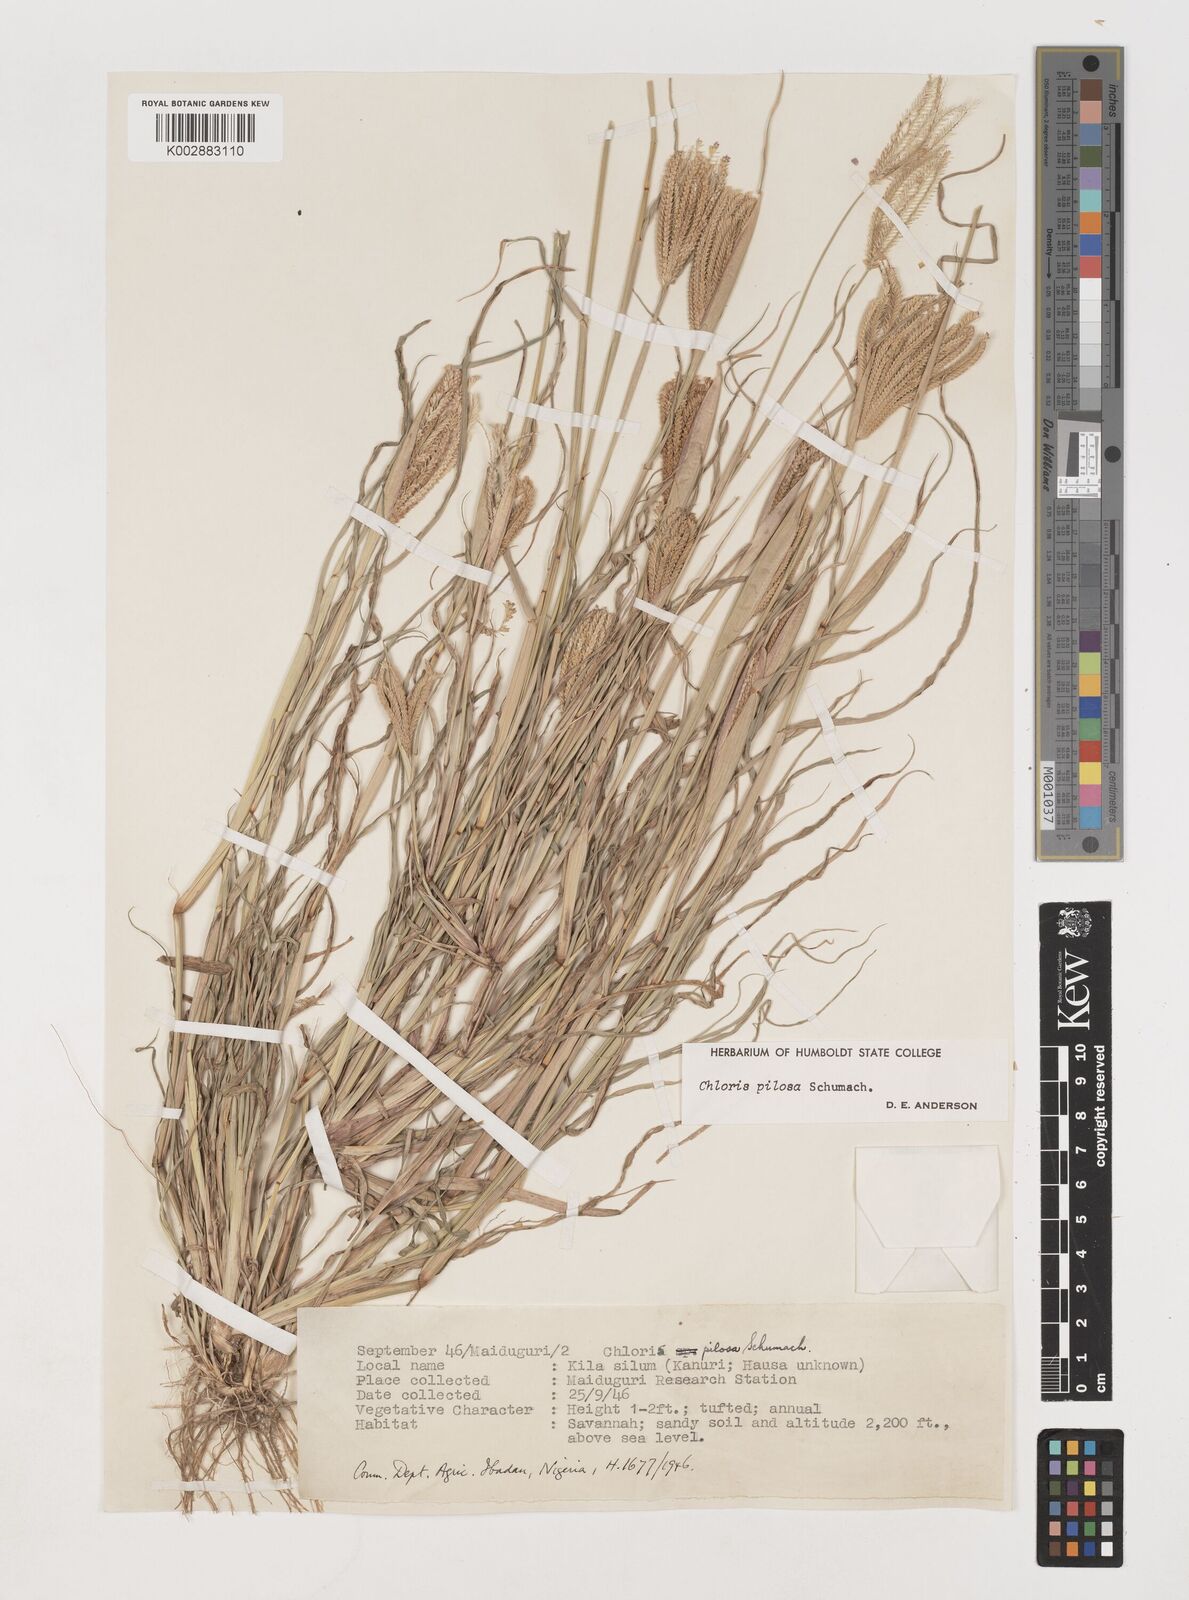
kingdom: Plantae
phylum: Tracheophyta
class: Liliopsida
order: Poales
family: Poaceae
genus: Chloris
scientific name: Chloris pilosa
